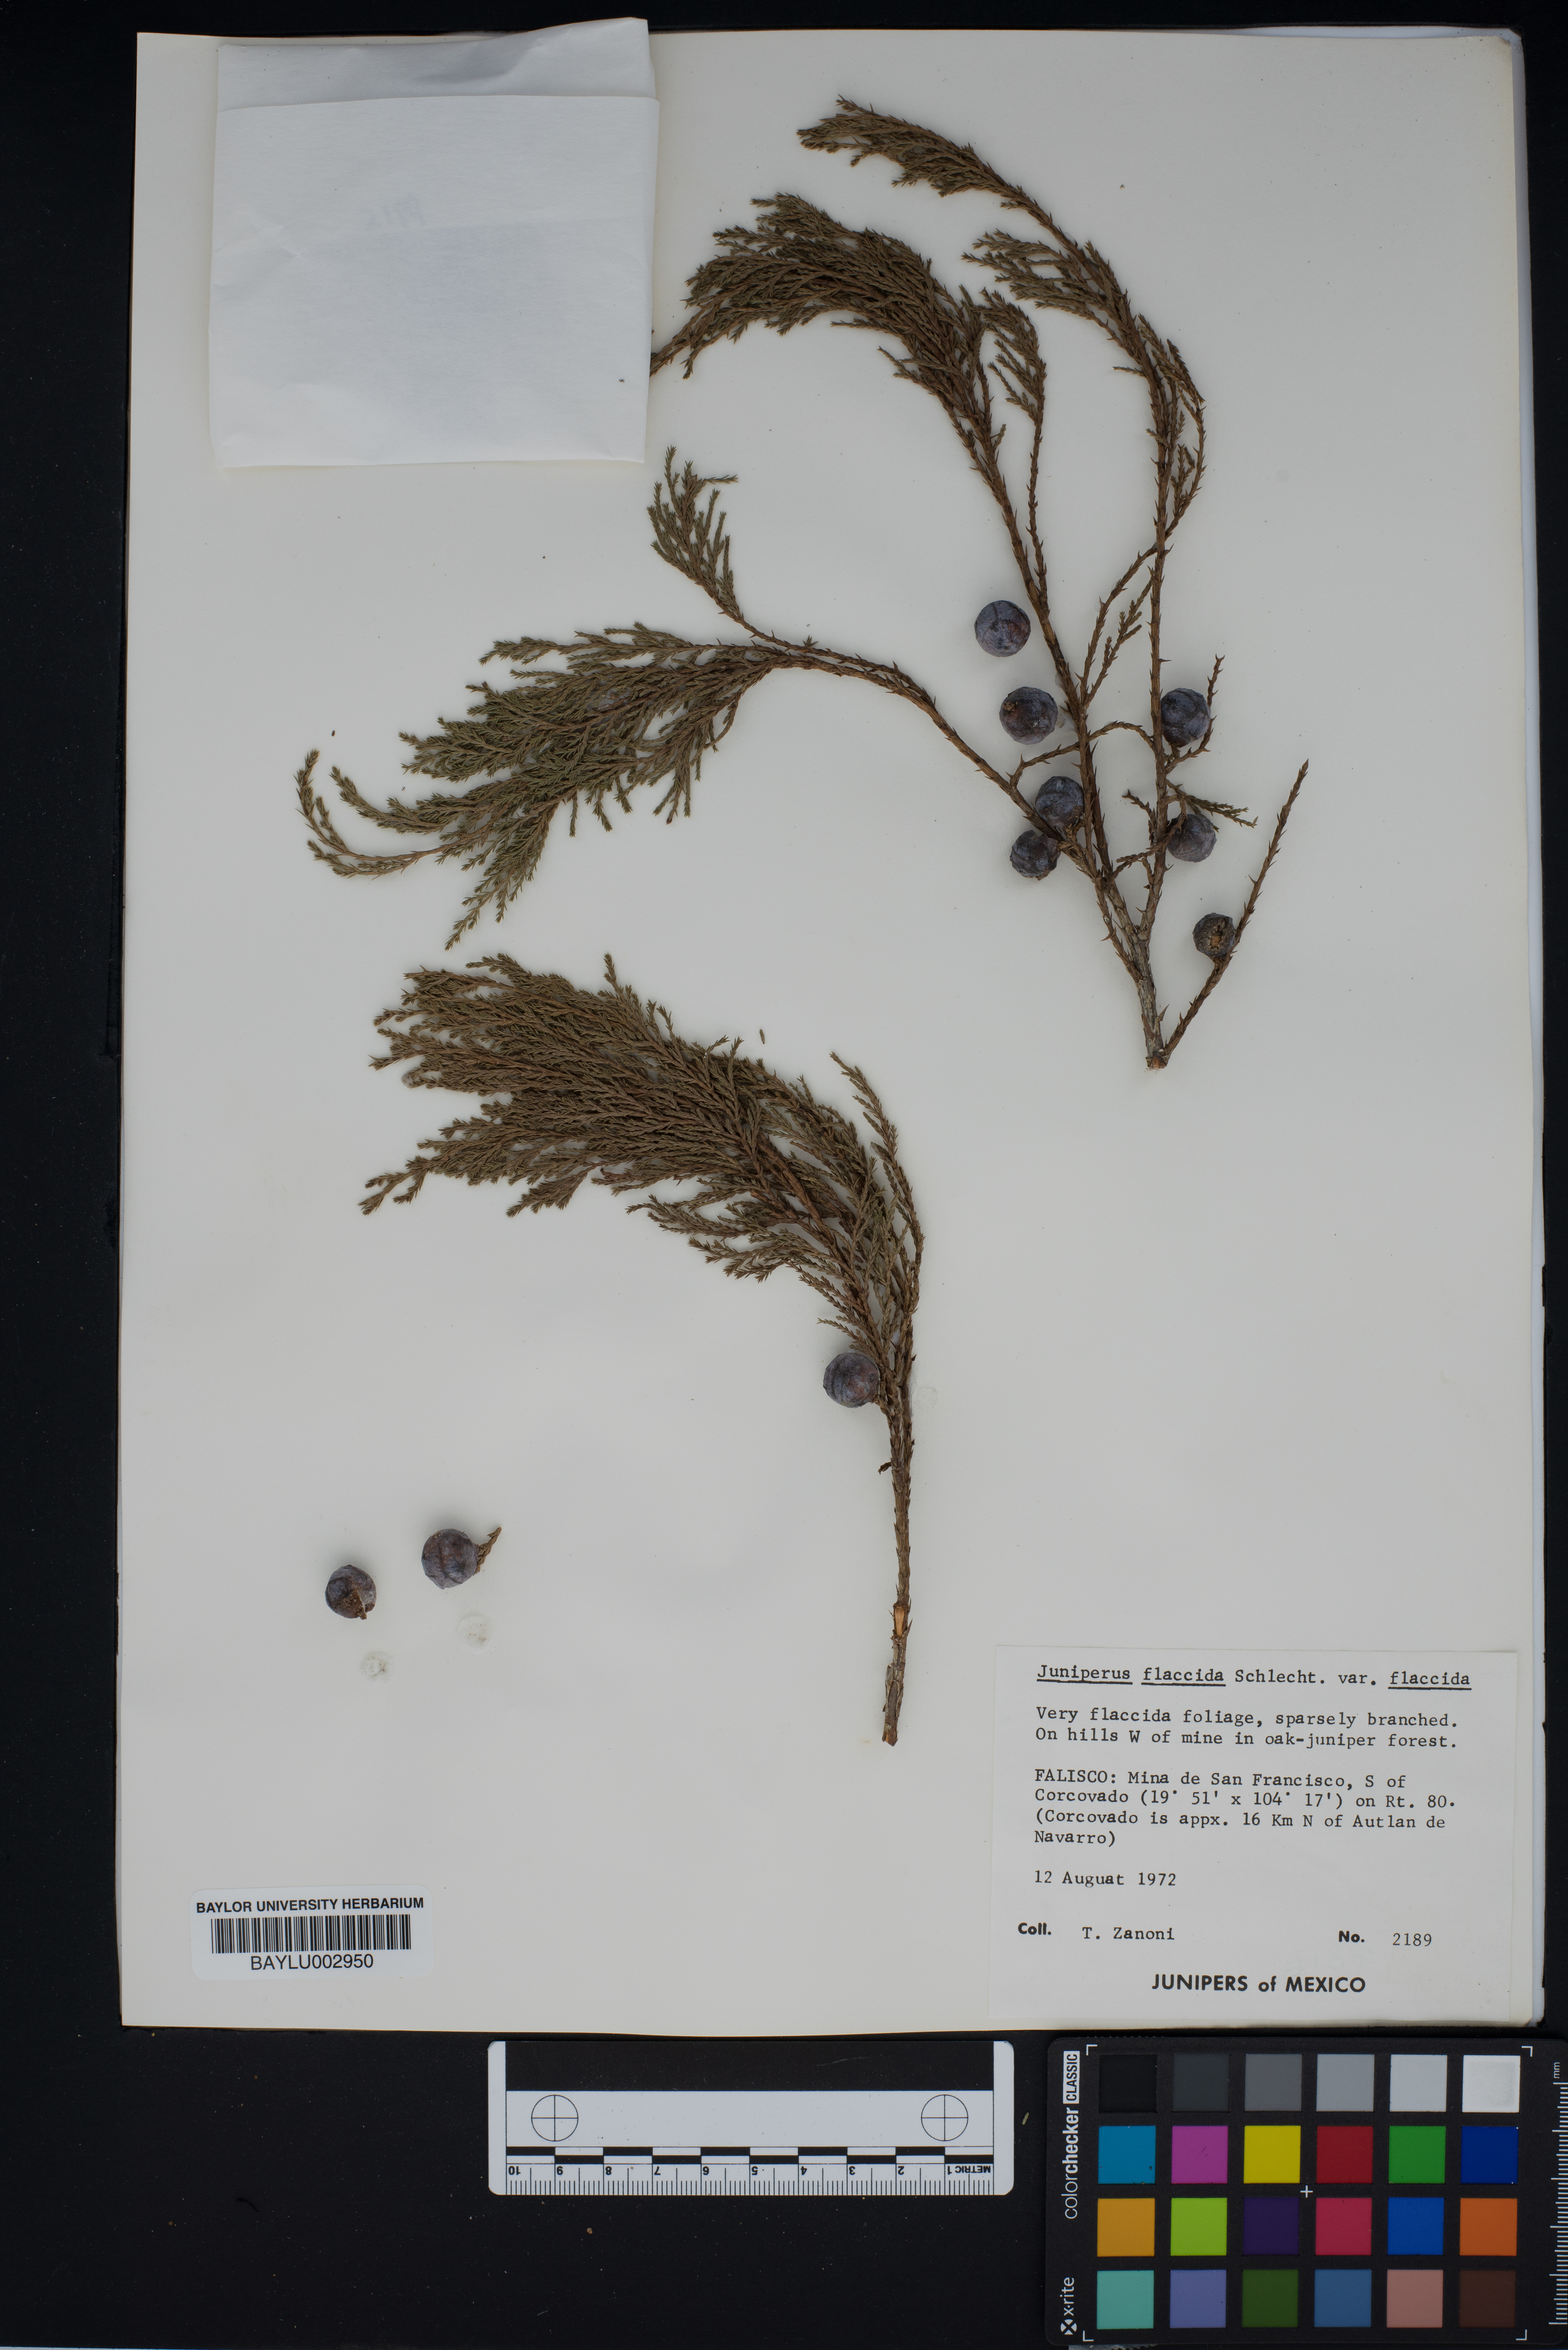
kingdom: Plantae
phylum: Tracheophyta
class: Pinopsida
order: Pinales
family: Cupressaceae
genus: Juniperus
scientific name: Juniperus flaccida
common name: Drooping juniper
